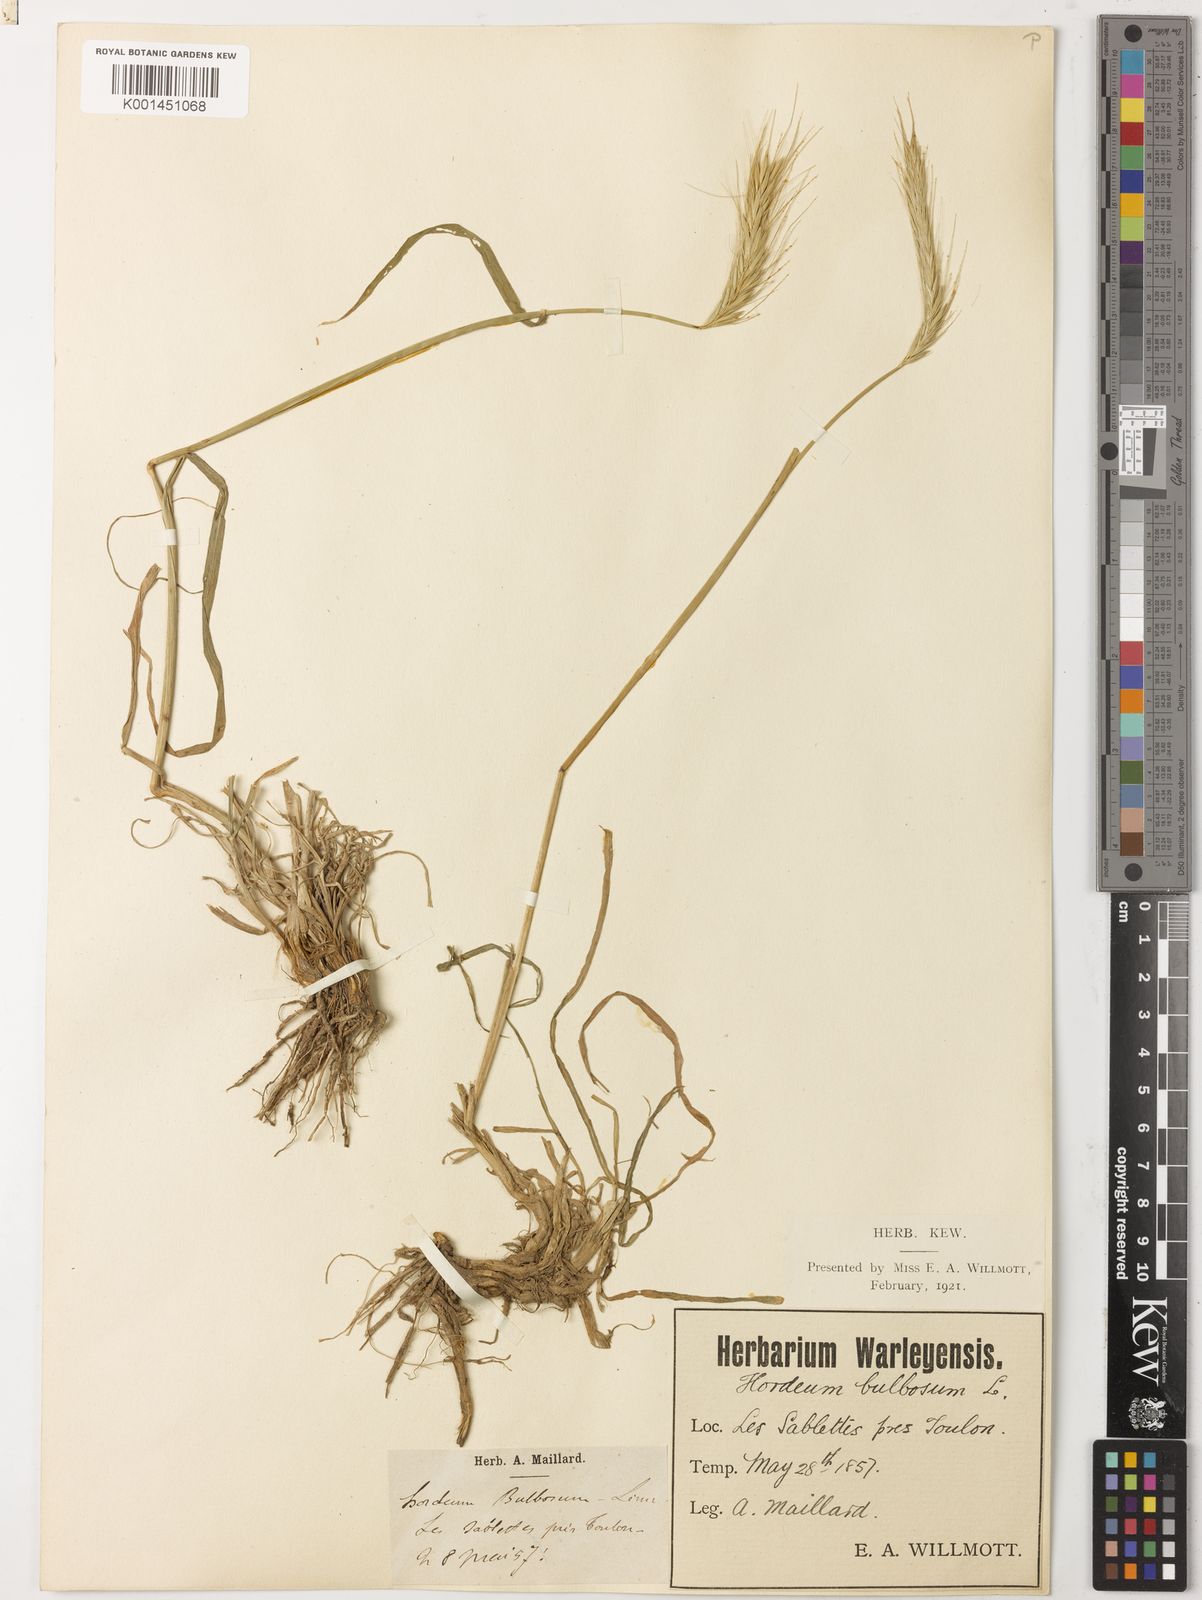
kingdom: Plantae
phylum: Tracheophyta
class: Liliopsida
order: Poales
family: Poaceae
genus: Hordeum
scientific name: Hordeum bulbosum
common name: Bulbous barley
